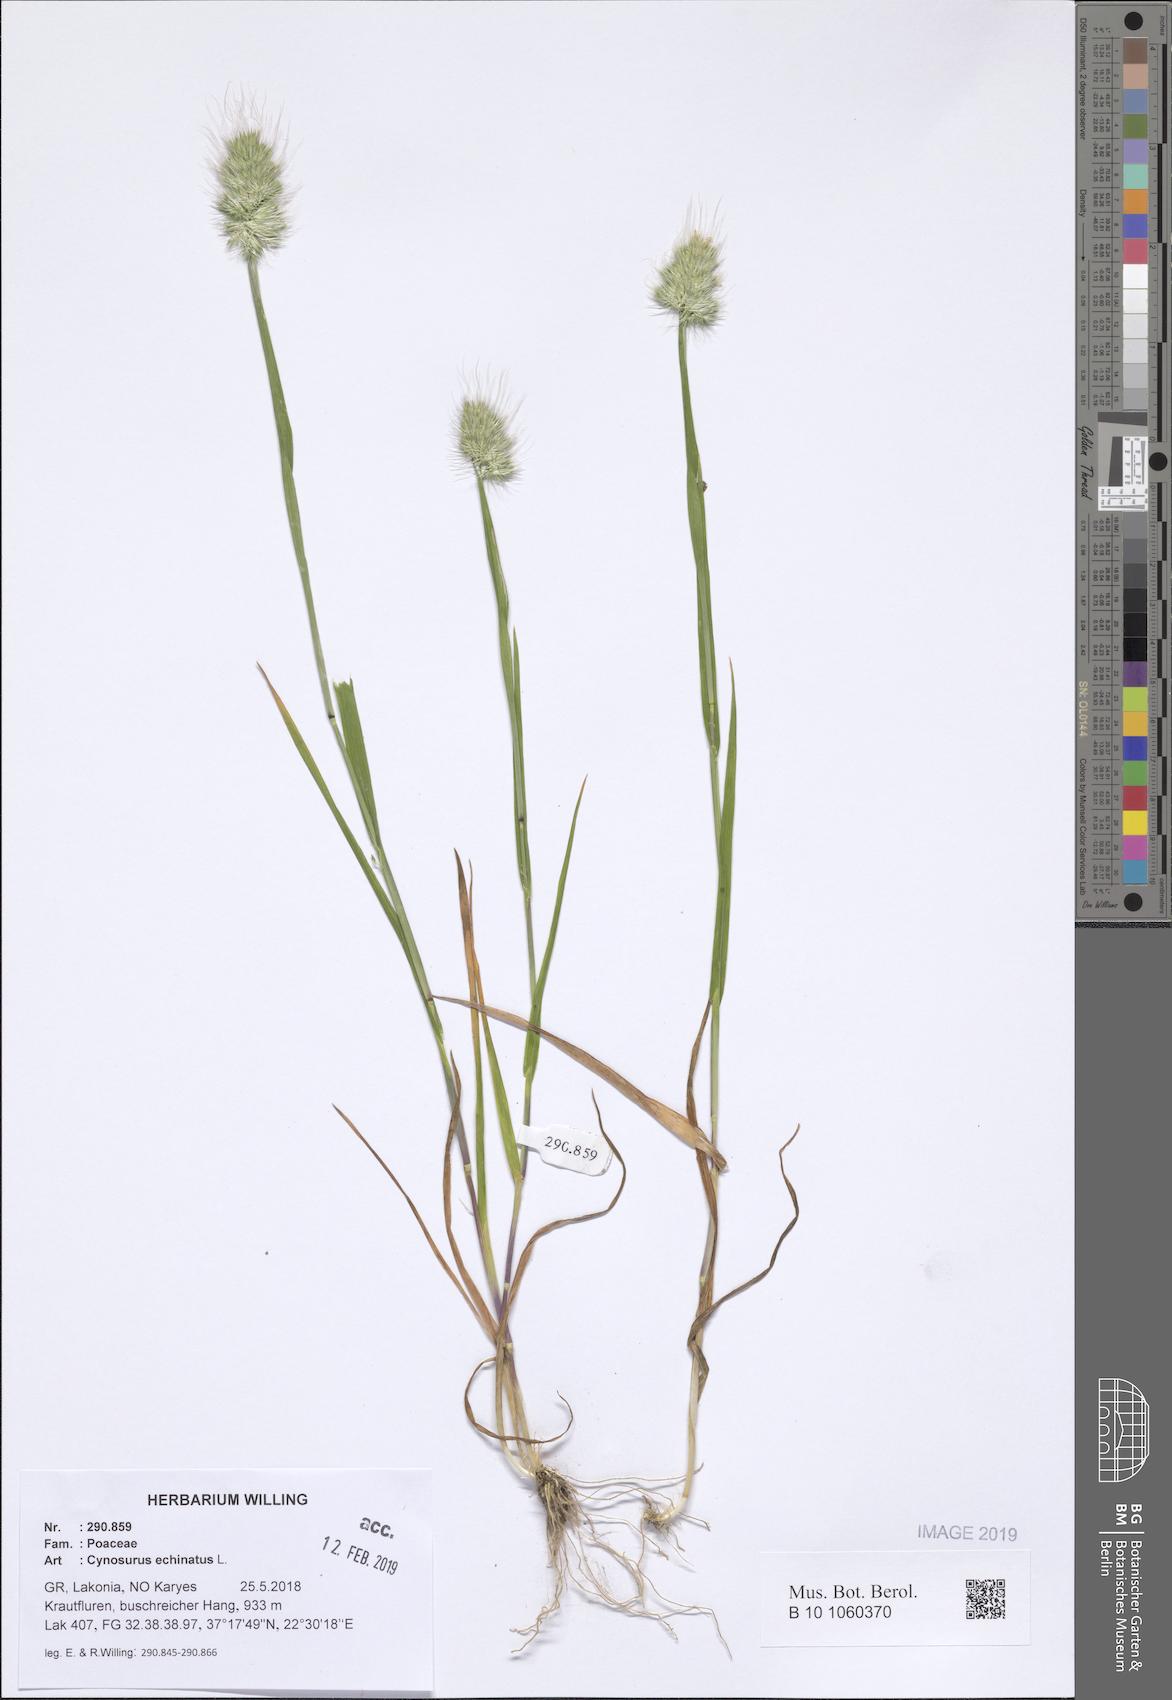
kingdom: Plantae
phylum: Tracheophyta
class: Liliopsida
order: Poales
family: Poaceae
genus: Cynosurus
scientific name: Cynosurus echinatus
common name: Rough dog's-tail
